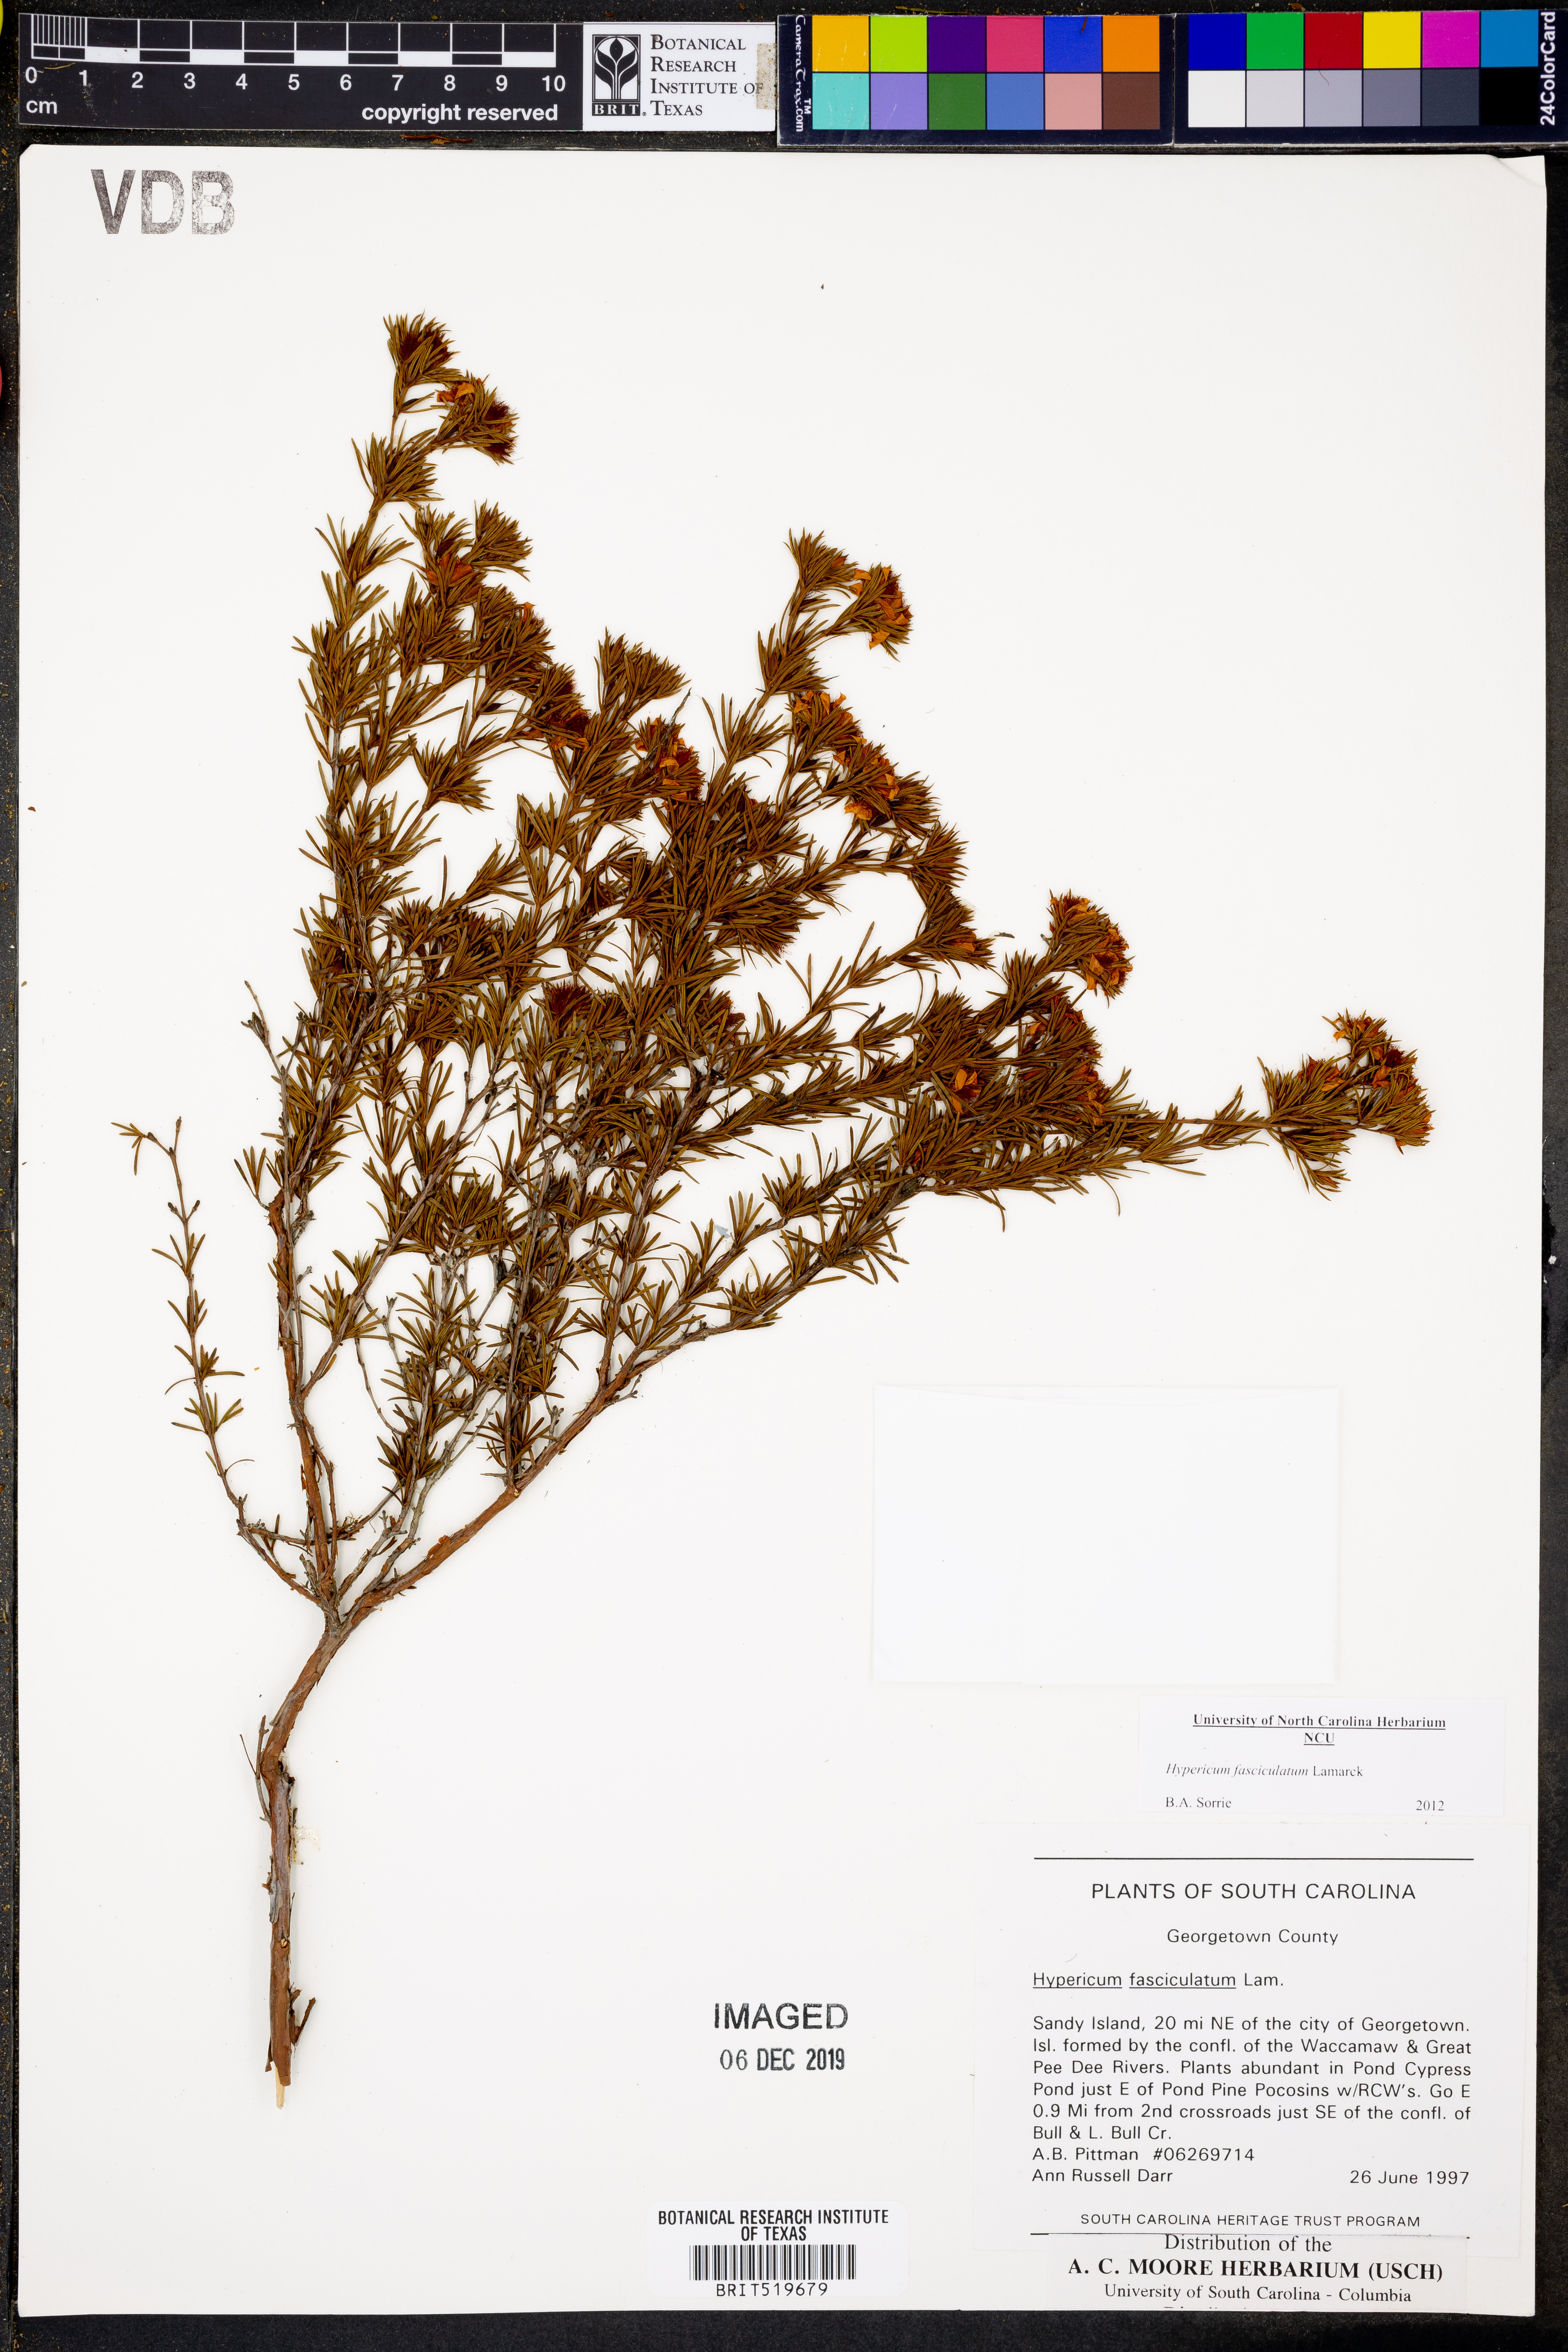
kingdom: Plantae
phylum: Tracheophyta
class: Magnoliopsida
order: Malpighiales
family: Hypericaceae
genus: Hypericum
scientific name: Hypericum fasciculatum
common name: Peelbark st. john's wort
